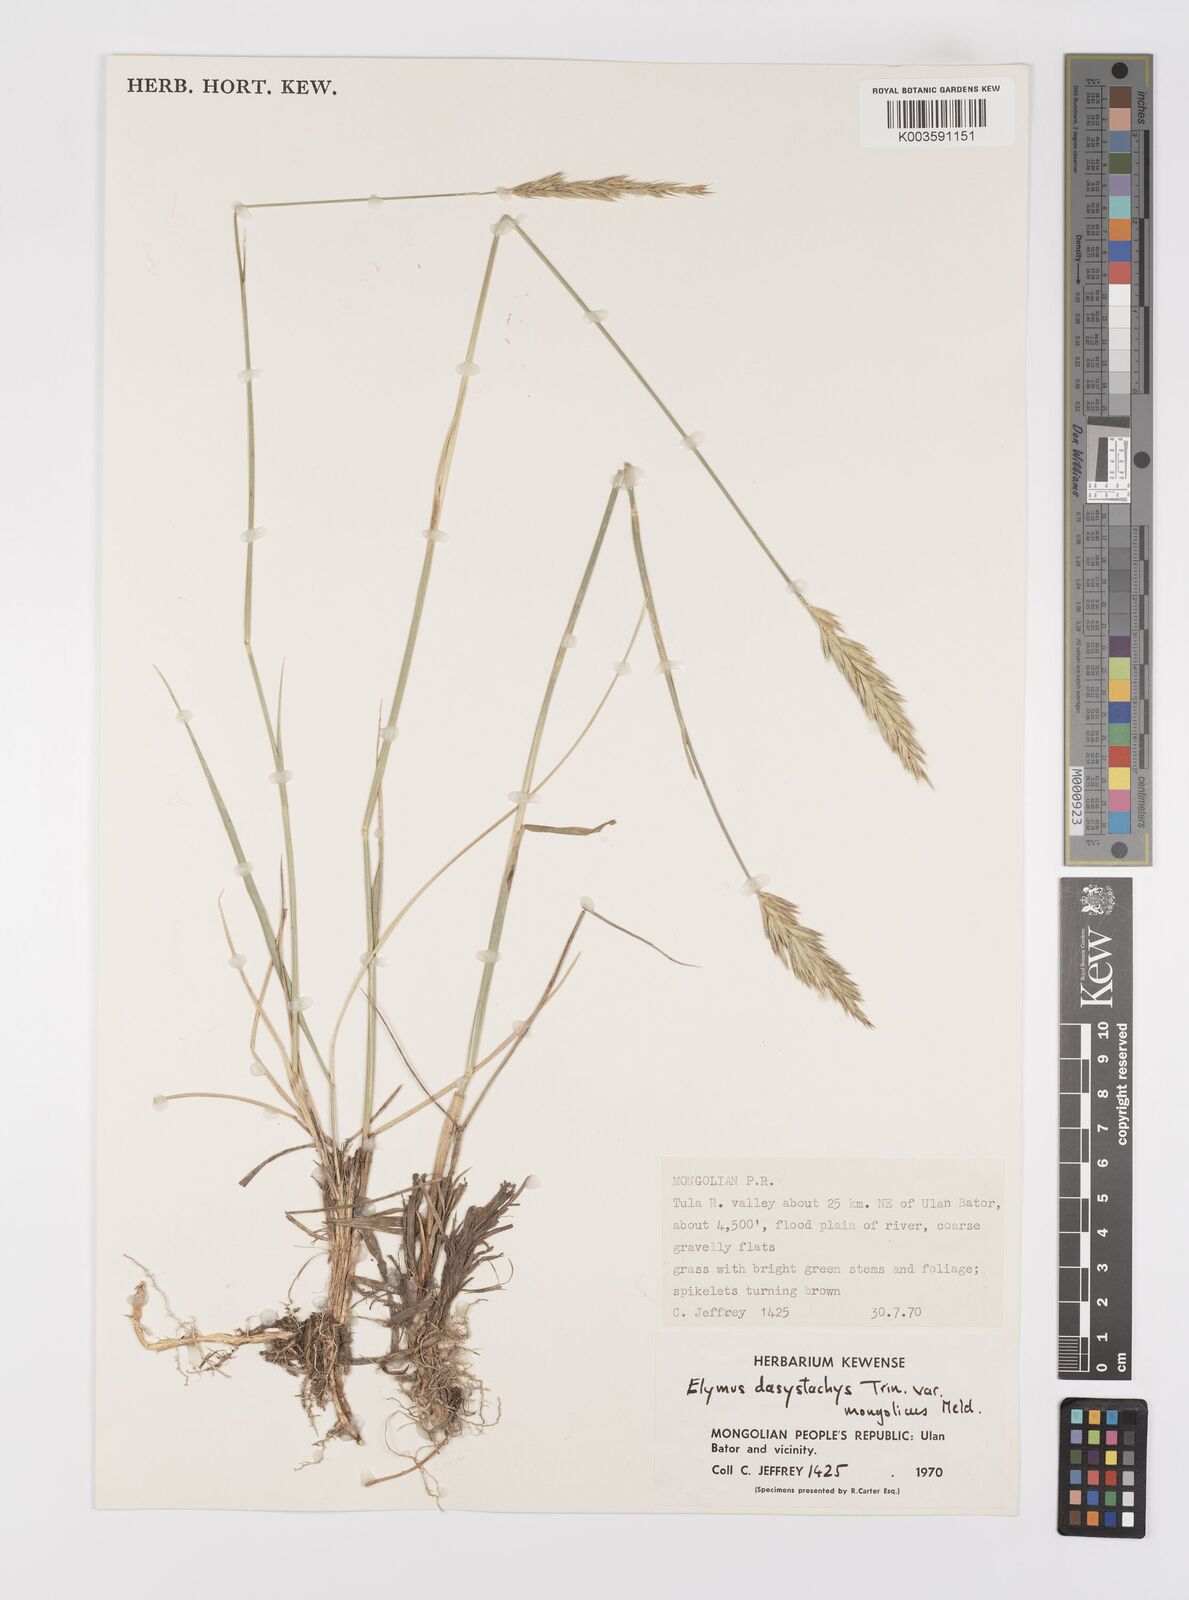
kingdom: Plantae
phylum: Tracheophyta
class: Liliopsida
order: Poales
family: Poaceae
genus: Leymus
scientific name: Leymus secalinus
